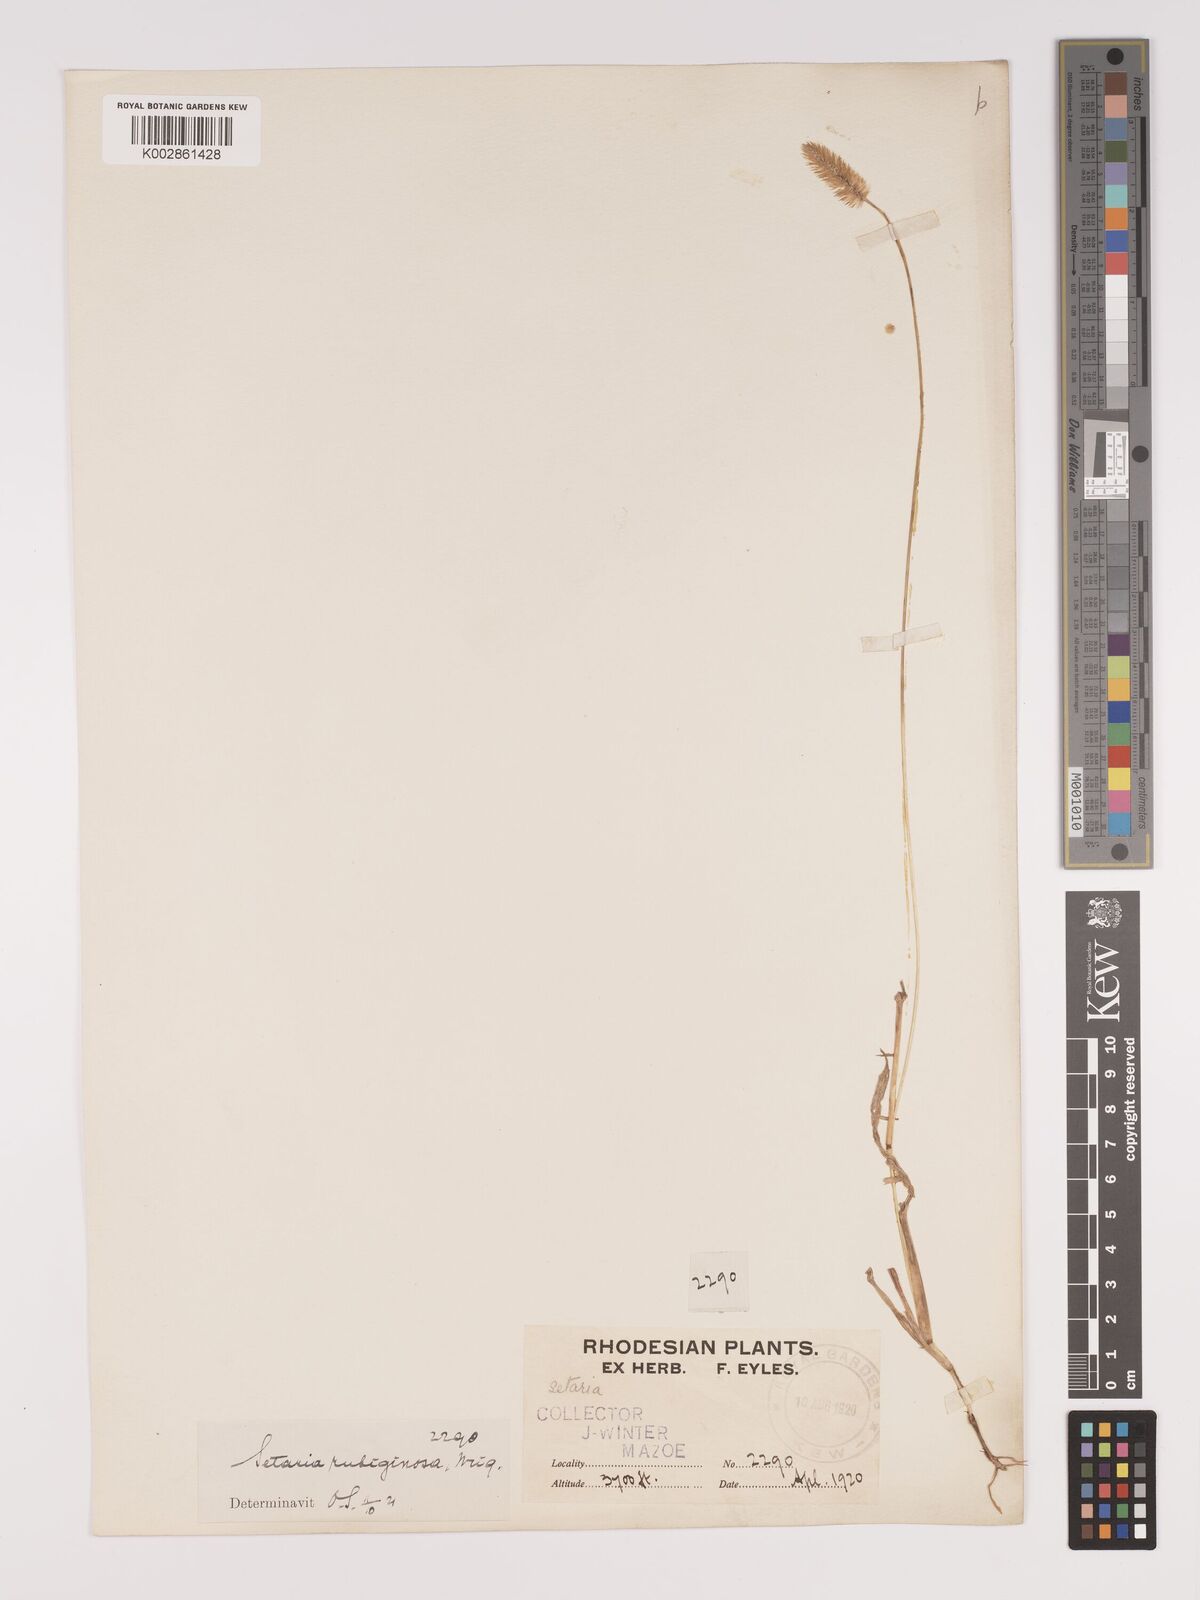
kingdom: Plantae
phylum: Tracheophyta
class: Liliopsida
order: Poales
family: Poaceae
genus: Setaria
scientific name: Setaria pumila
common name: Yellow bristle-grass
